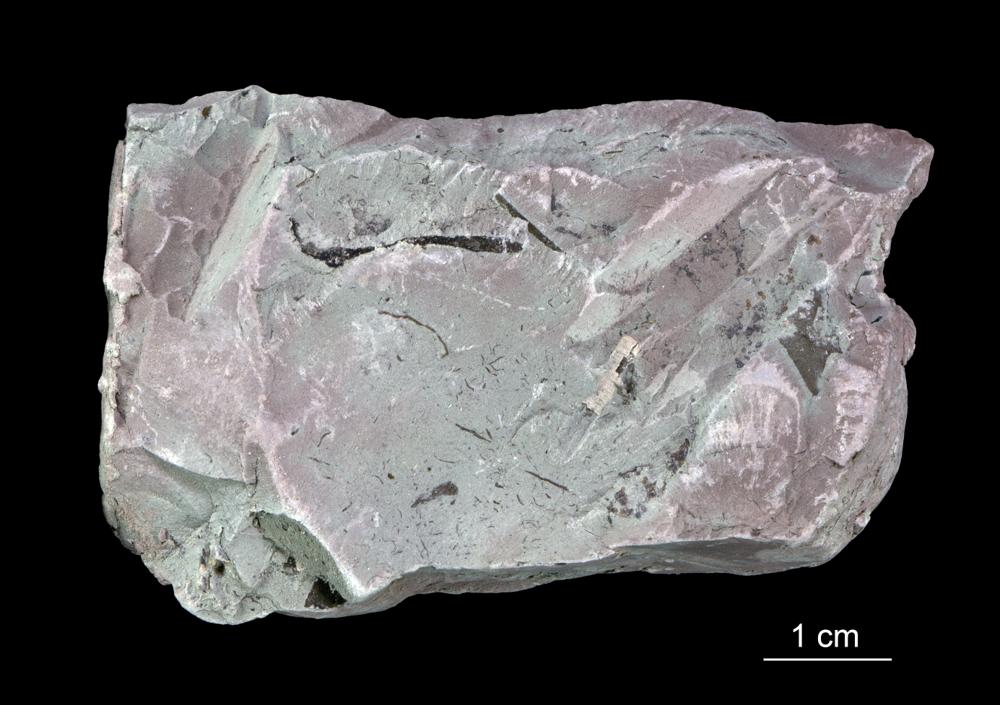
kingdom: Chromista
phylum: Foraminifera
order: Astrorhizida
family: Hyperamminidae
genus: Platysolenites
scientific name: Platysolenites antiquissimus
